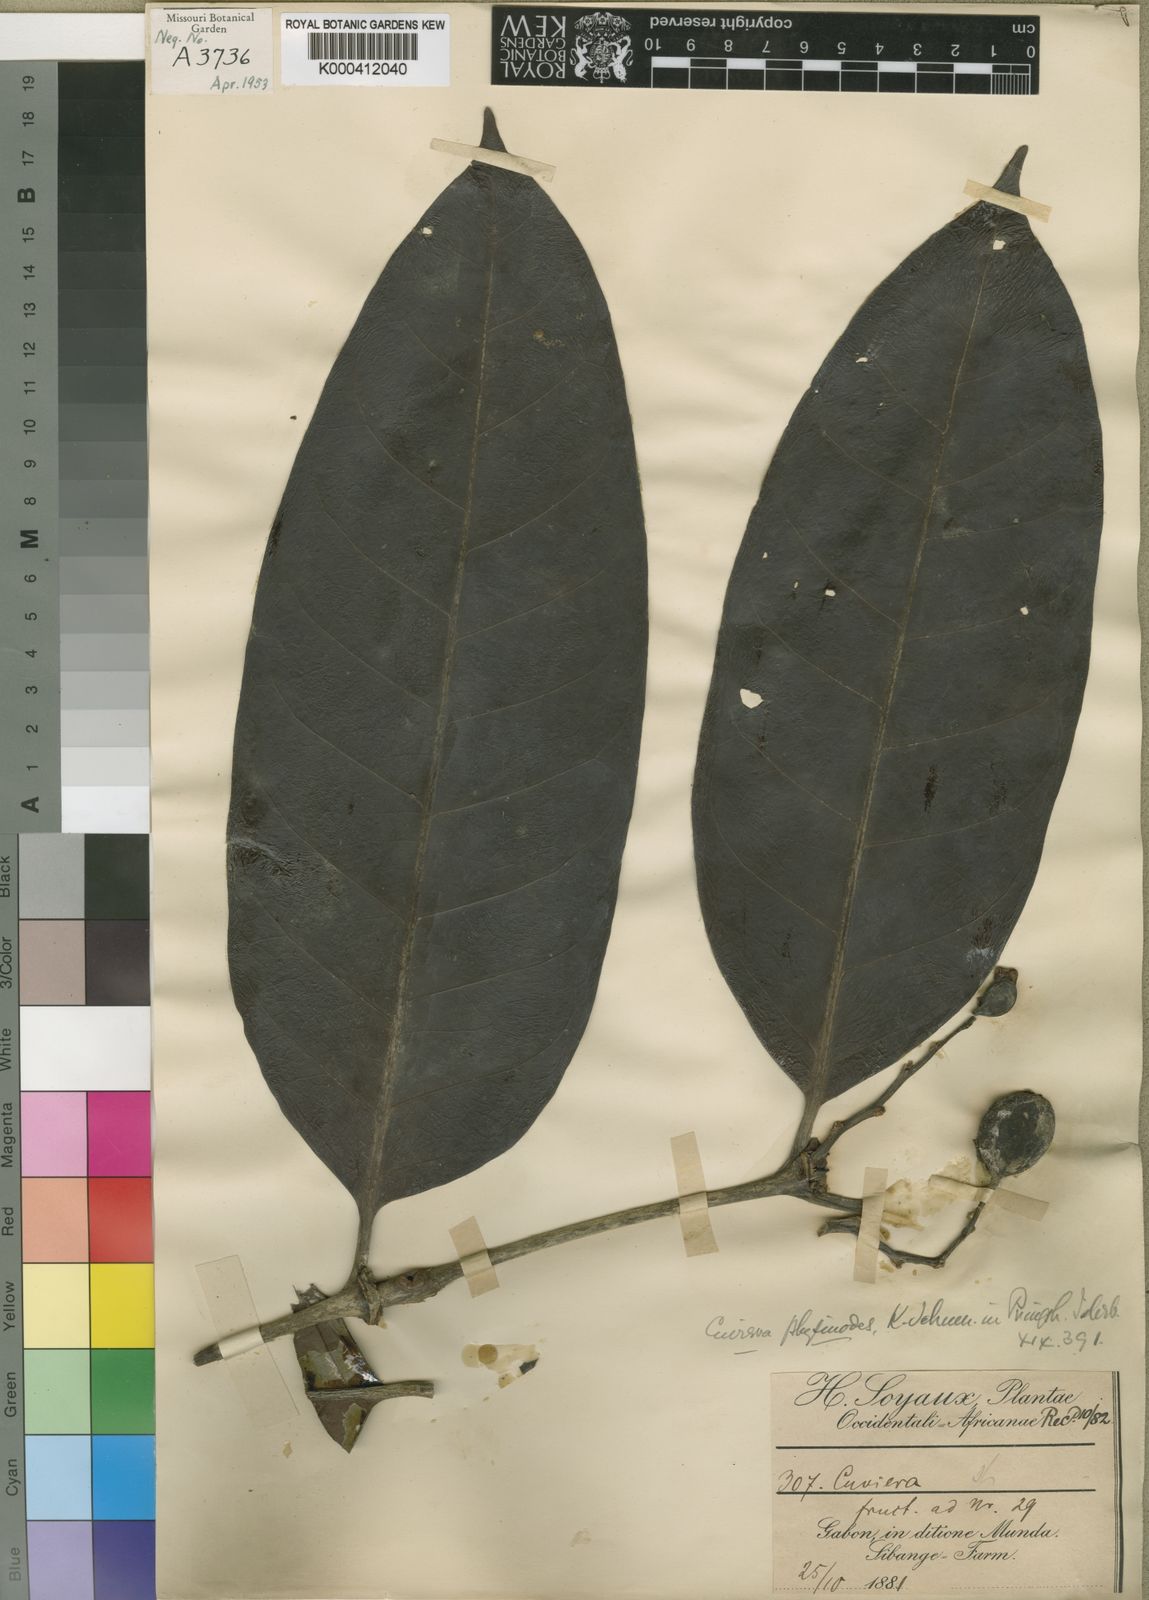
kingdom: Plantae
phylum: Tracheophyta
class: Magnoliopsida
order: Gentianales
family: Rubiaceae
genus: Cuviera
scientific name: Cuviera physinodes
